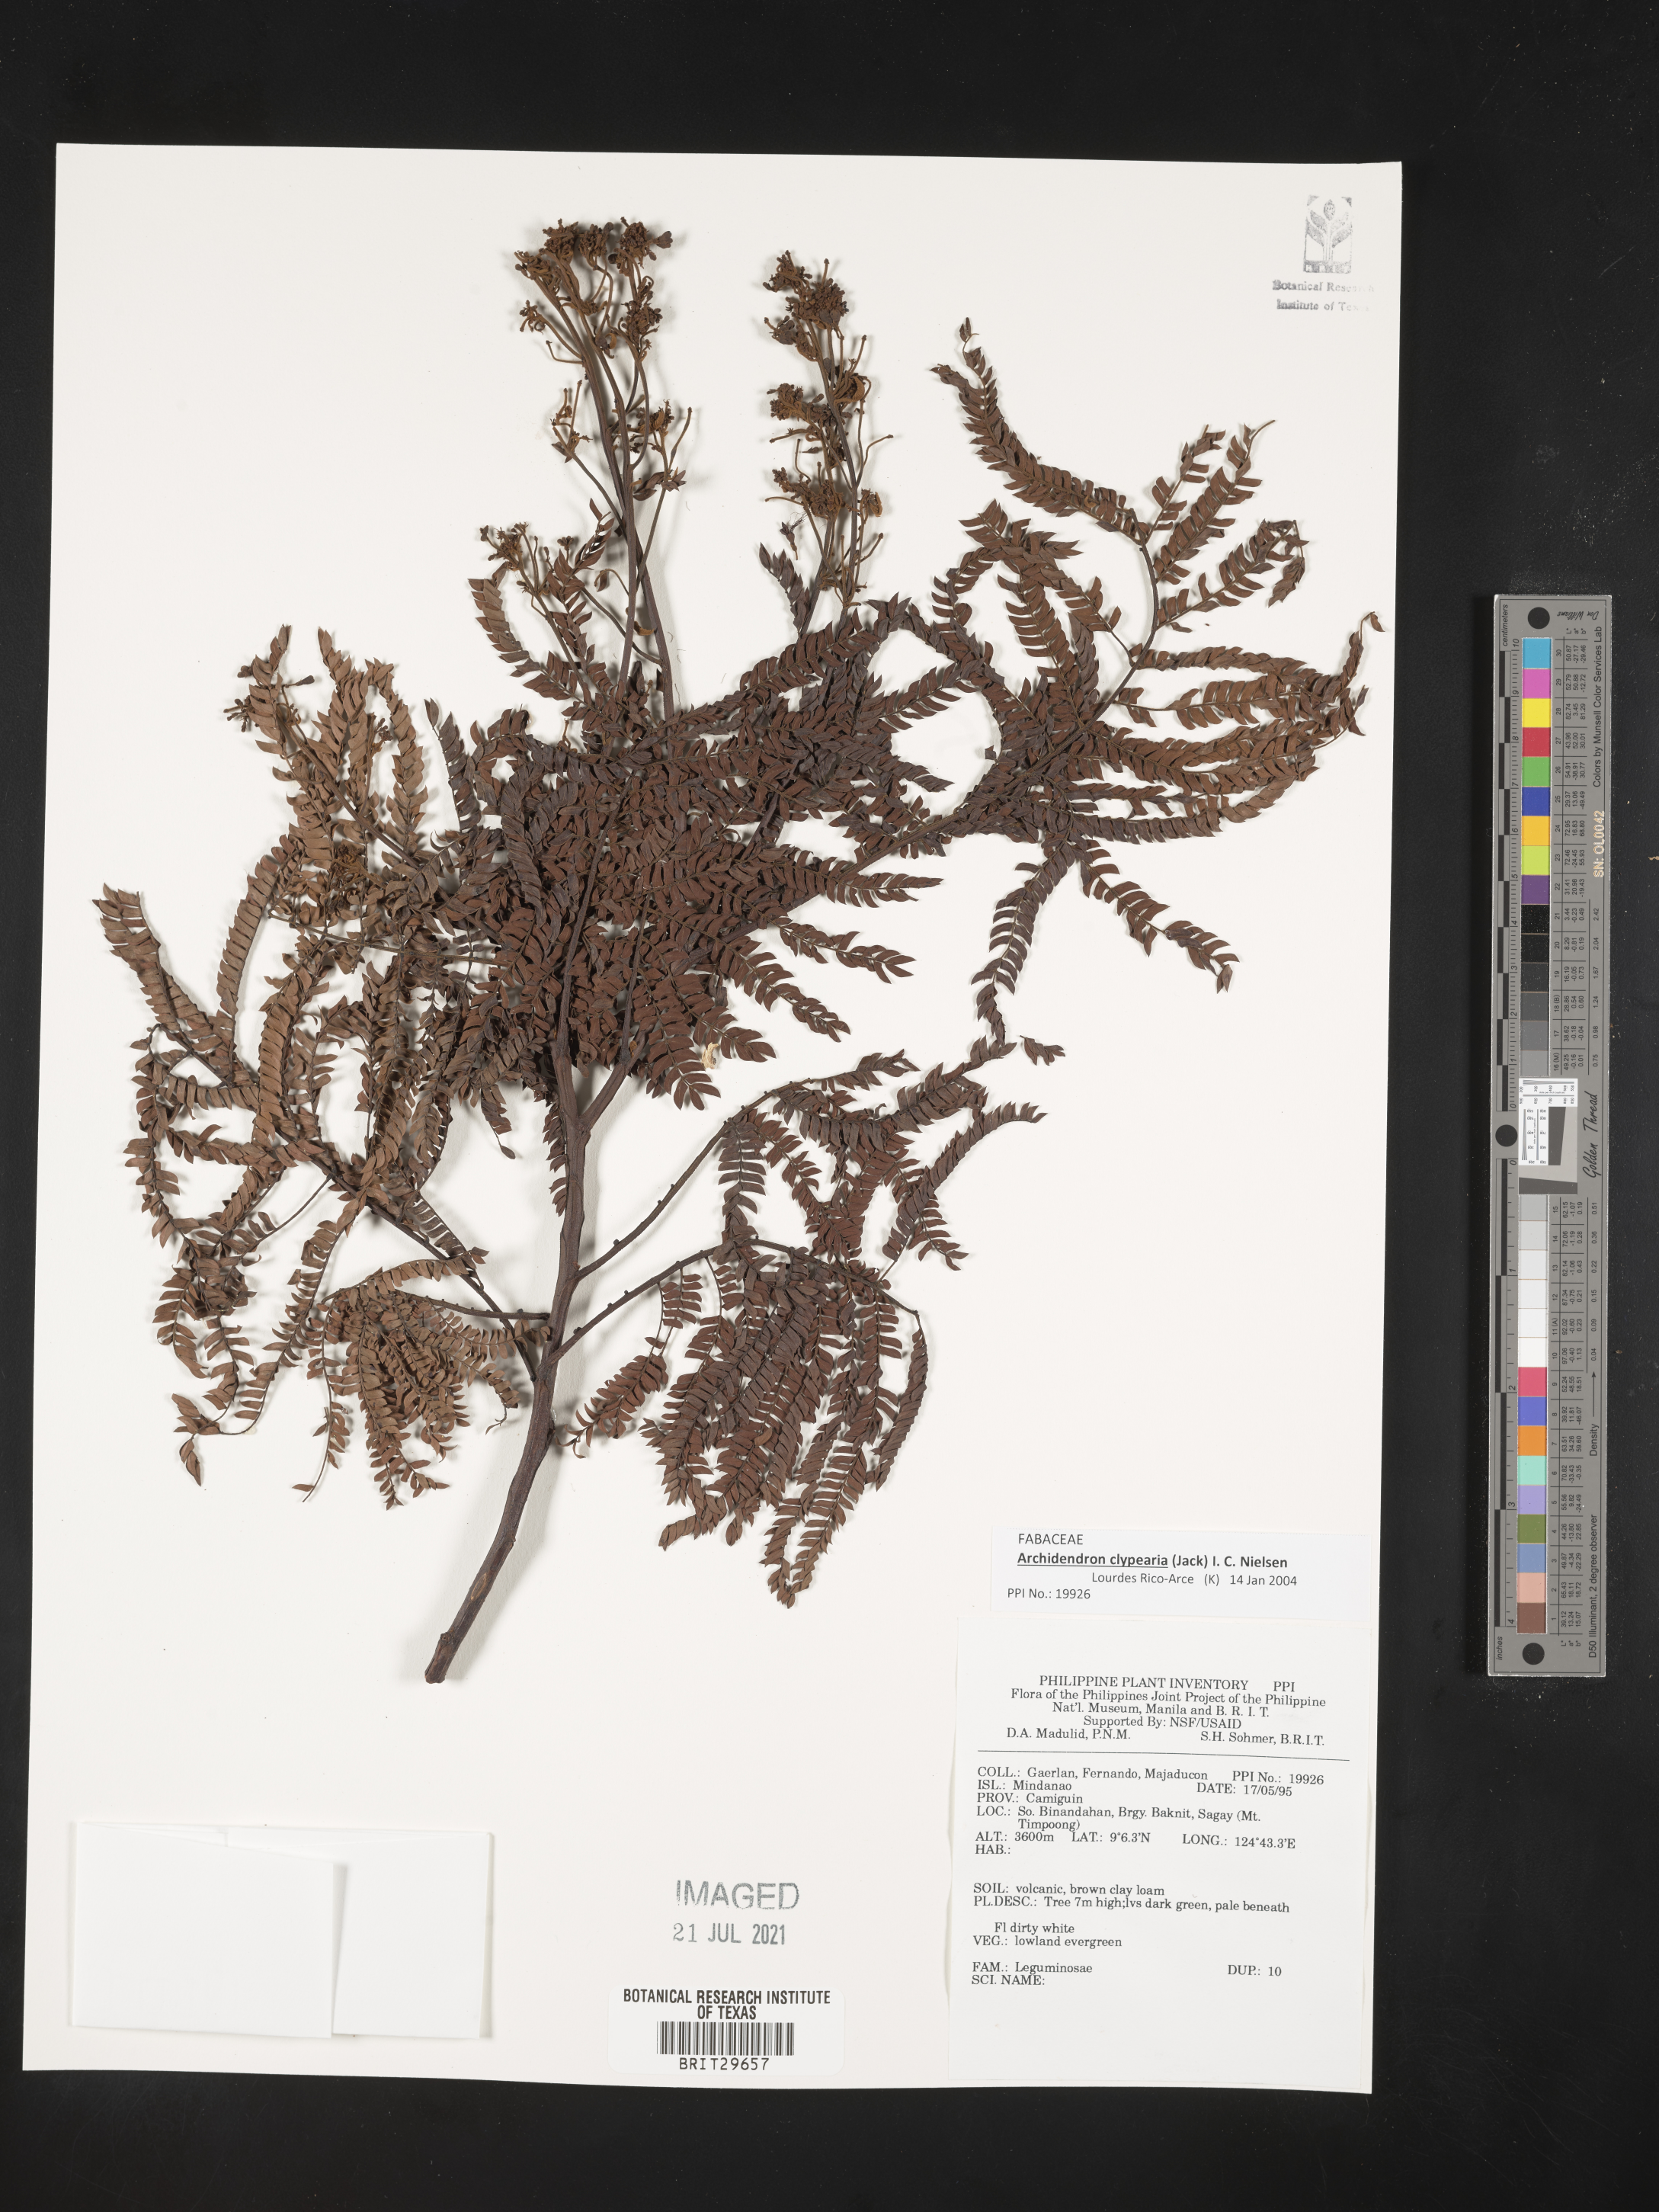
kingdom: Plantae
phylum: Tracheophyta
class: Magnoliopsida
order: Fabales
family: Fabaceae
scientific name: Fabaceae
